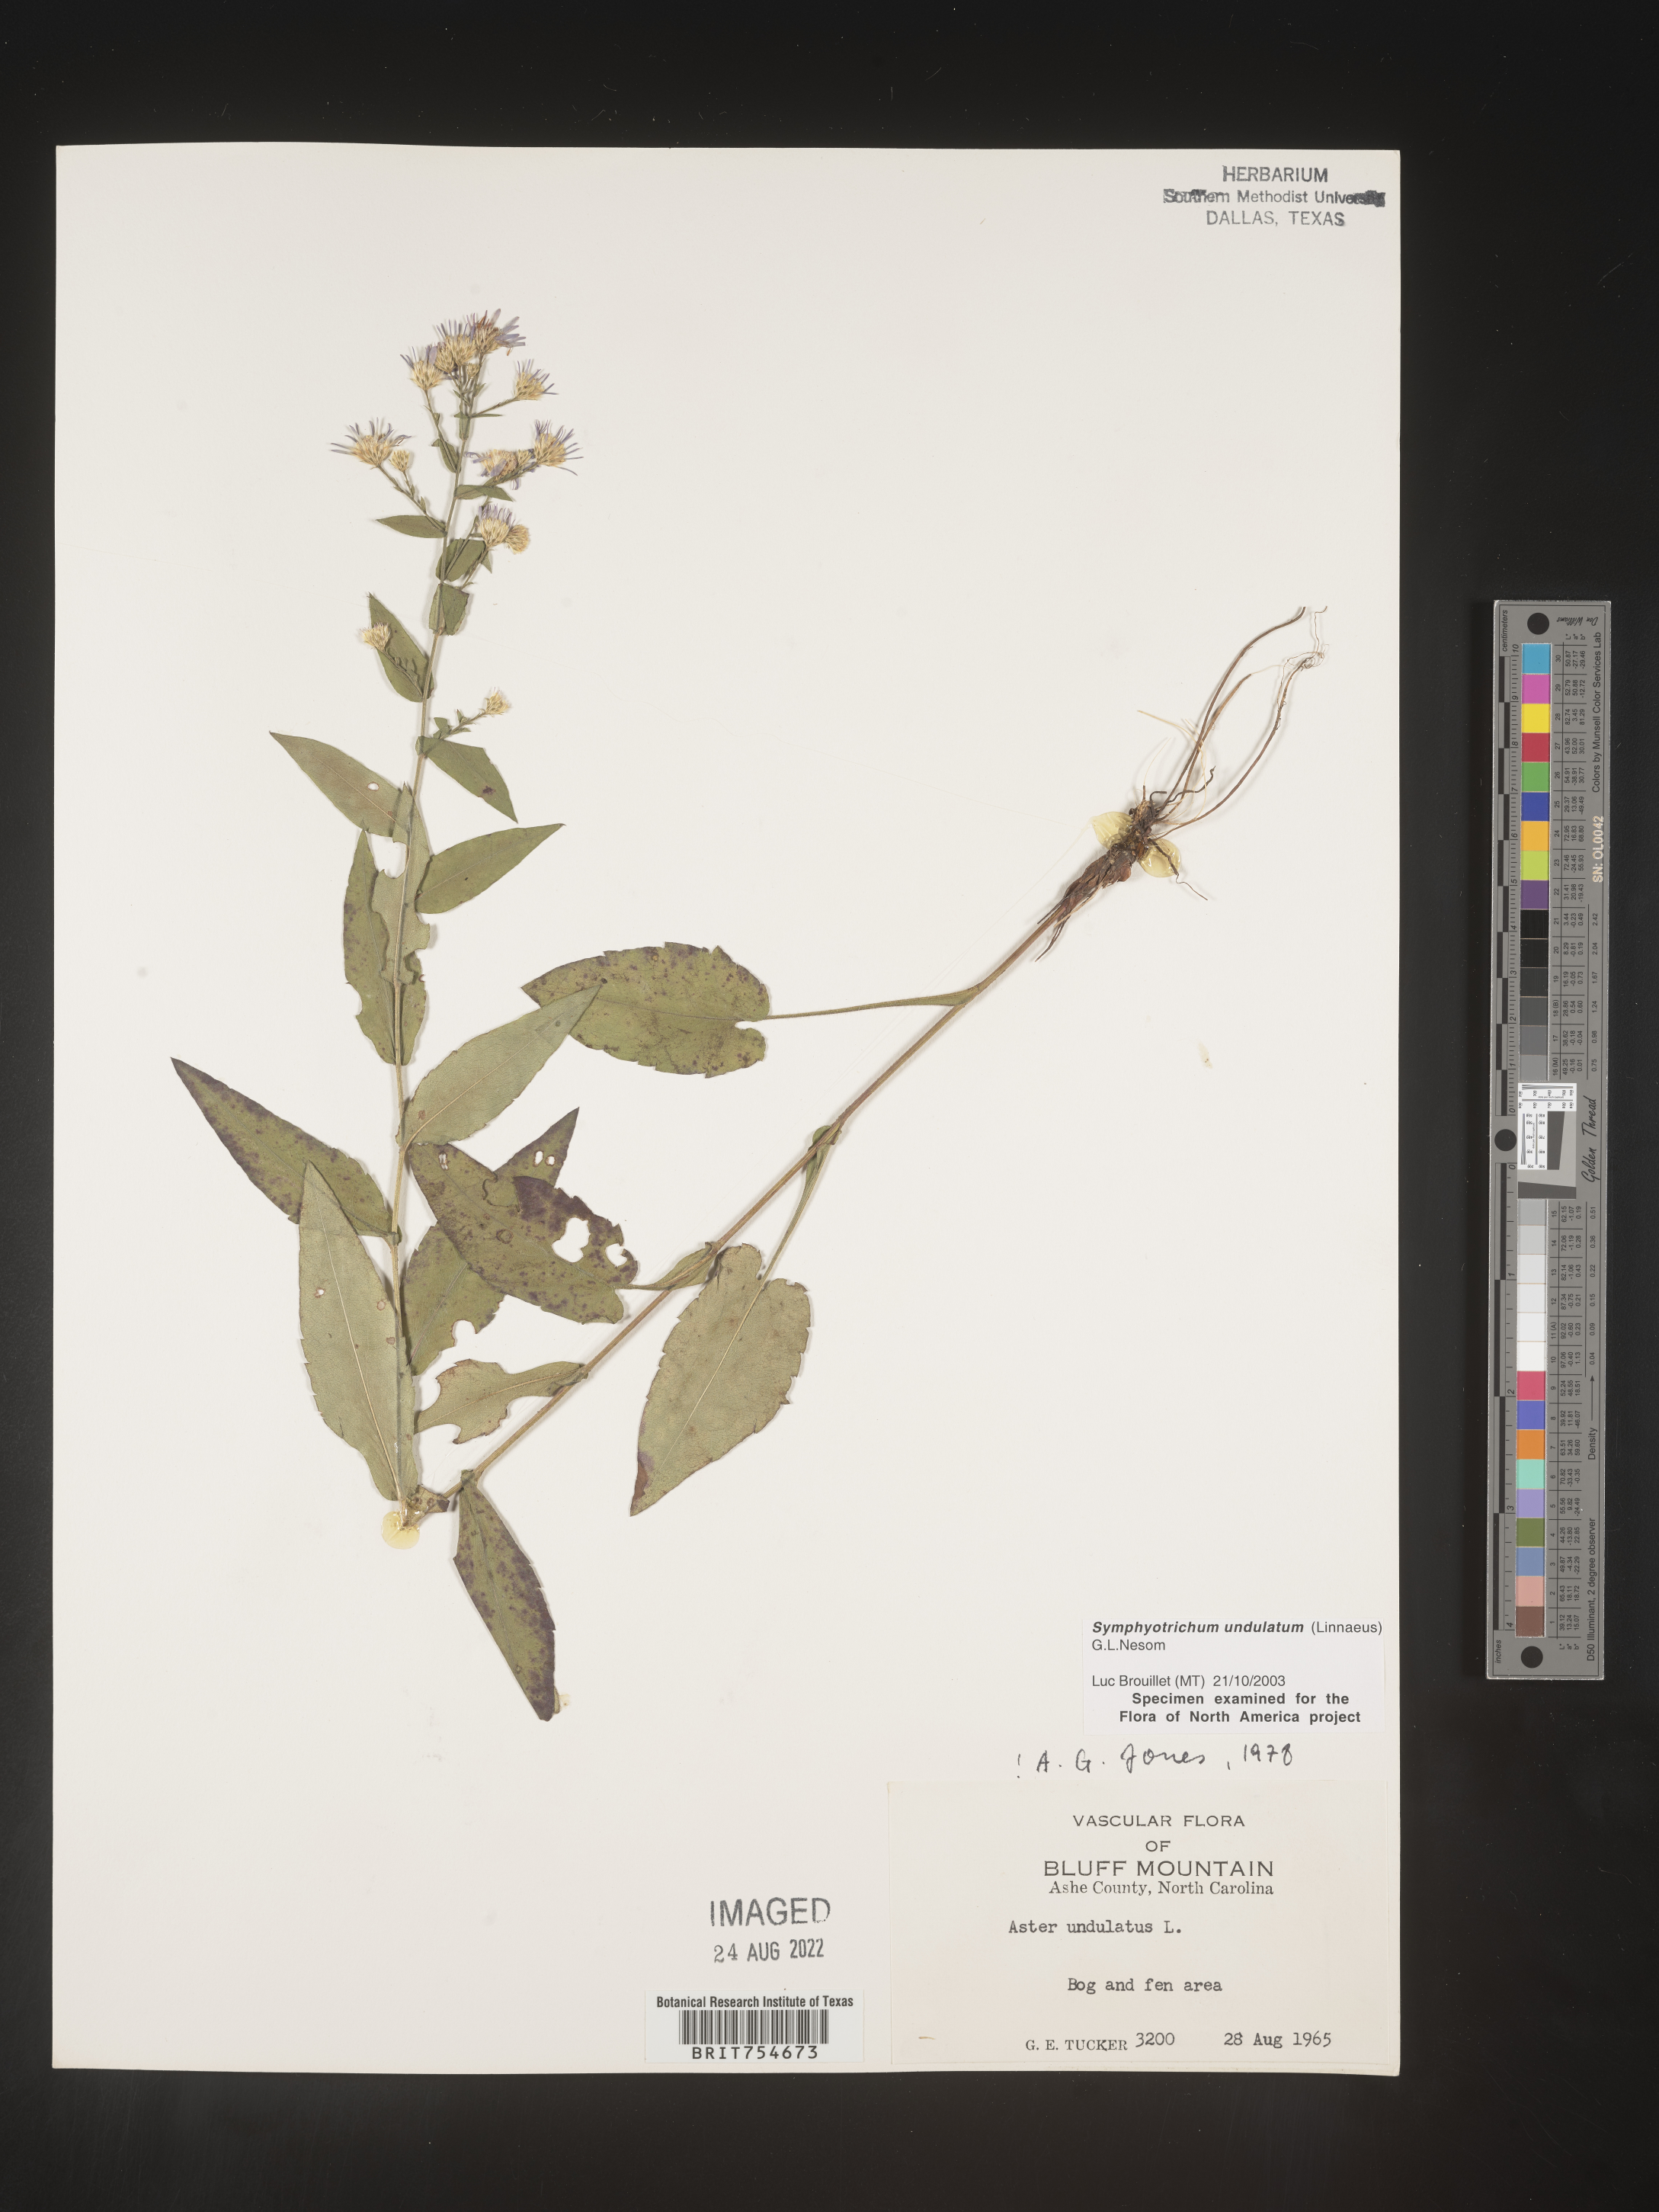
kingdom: Plantae
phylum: Tracheophyta
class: Magnoliopsida
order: Asterales
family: Asteraceae
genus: Symphyotrichum
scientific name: Symphyotrichum undulatum
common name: Clasping heart-leaf aster
